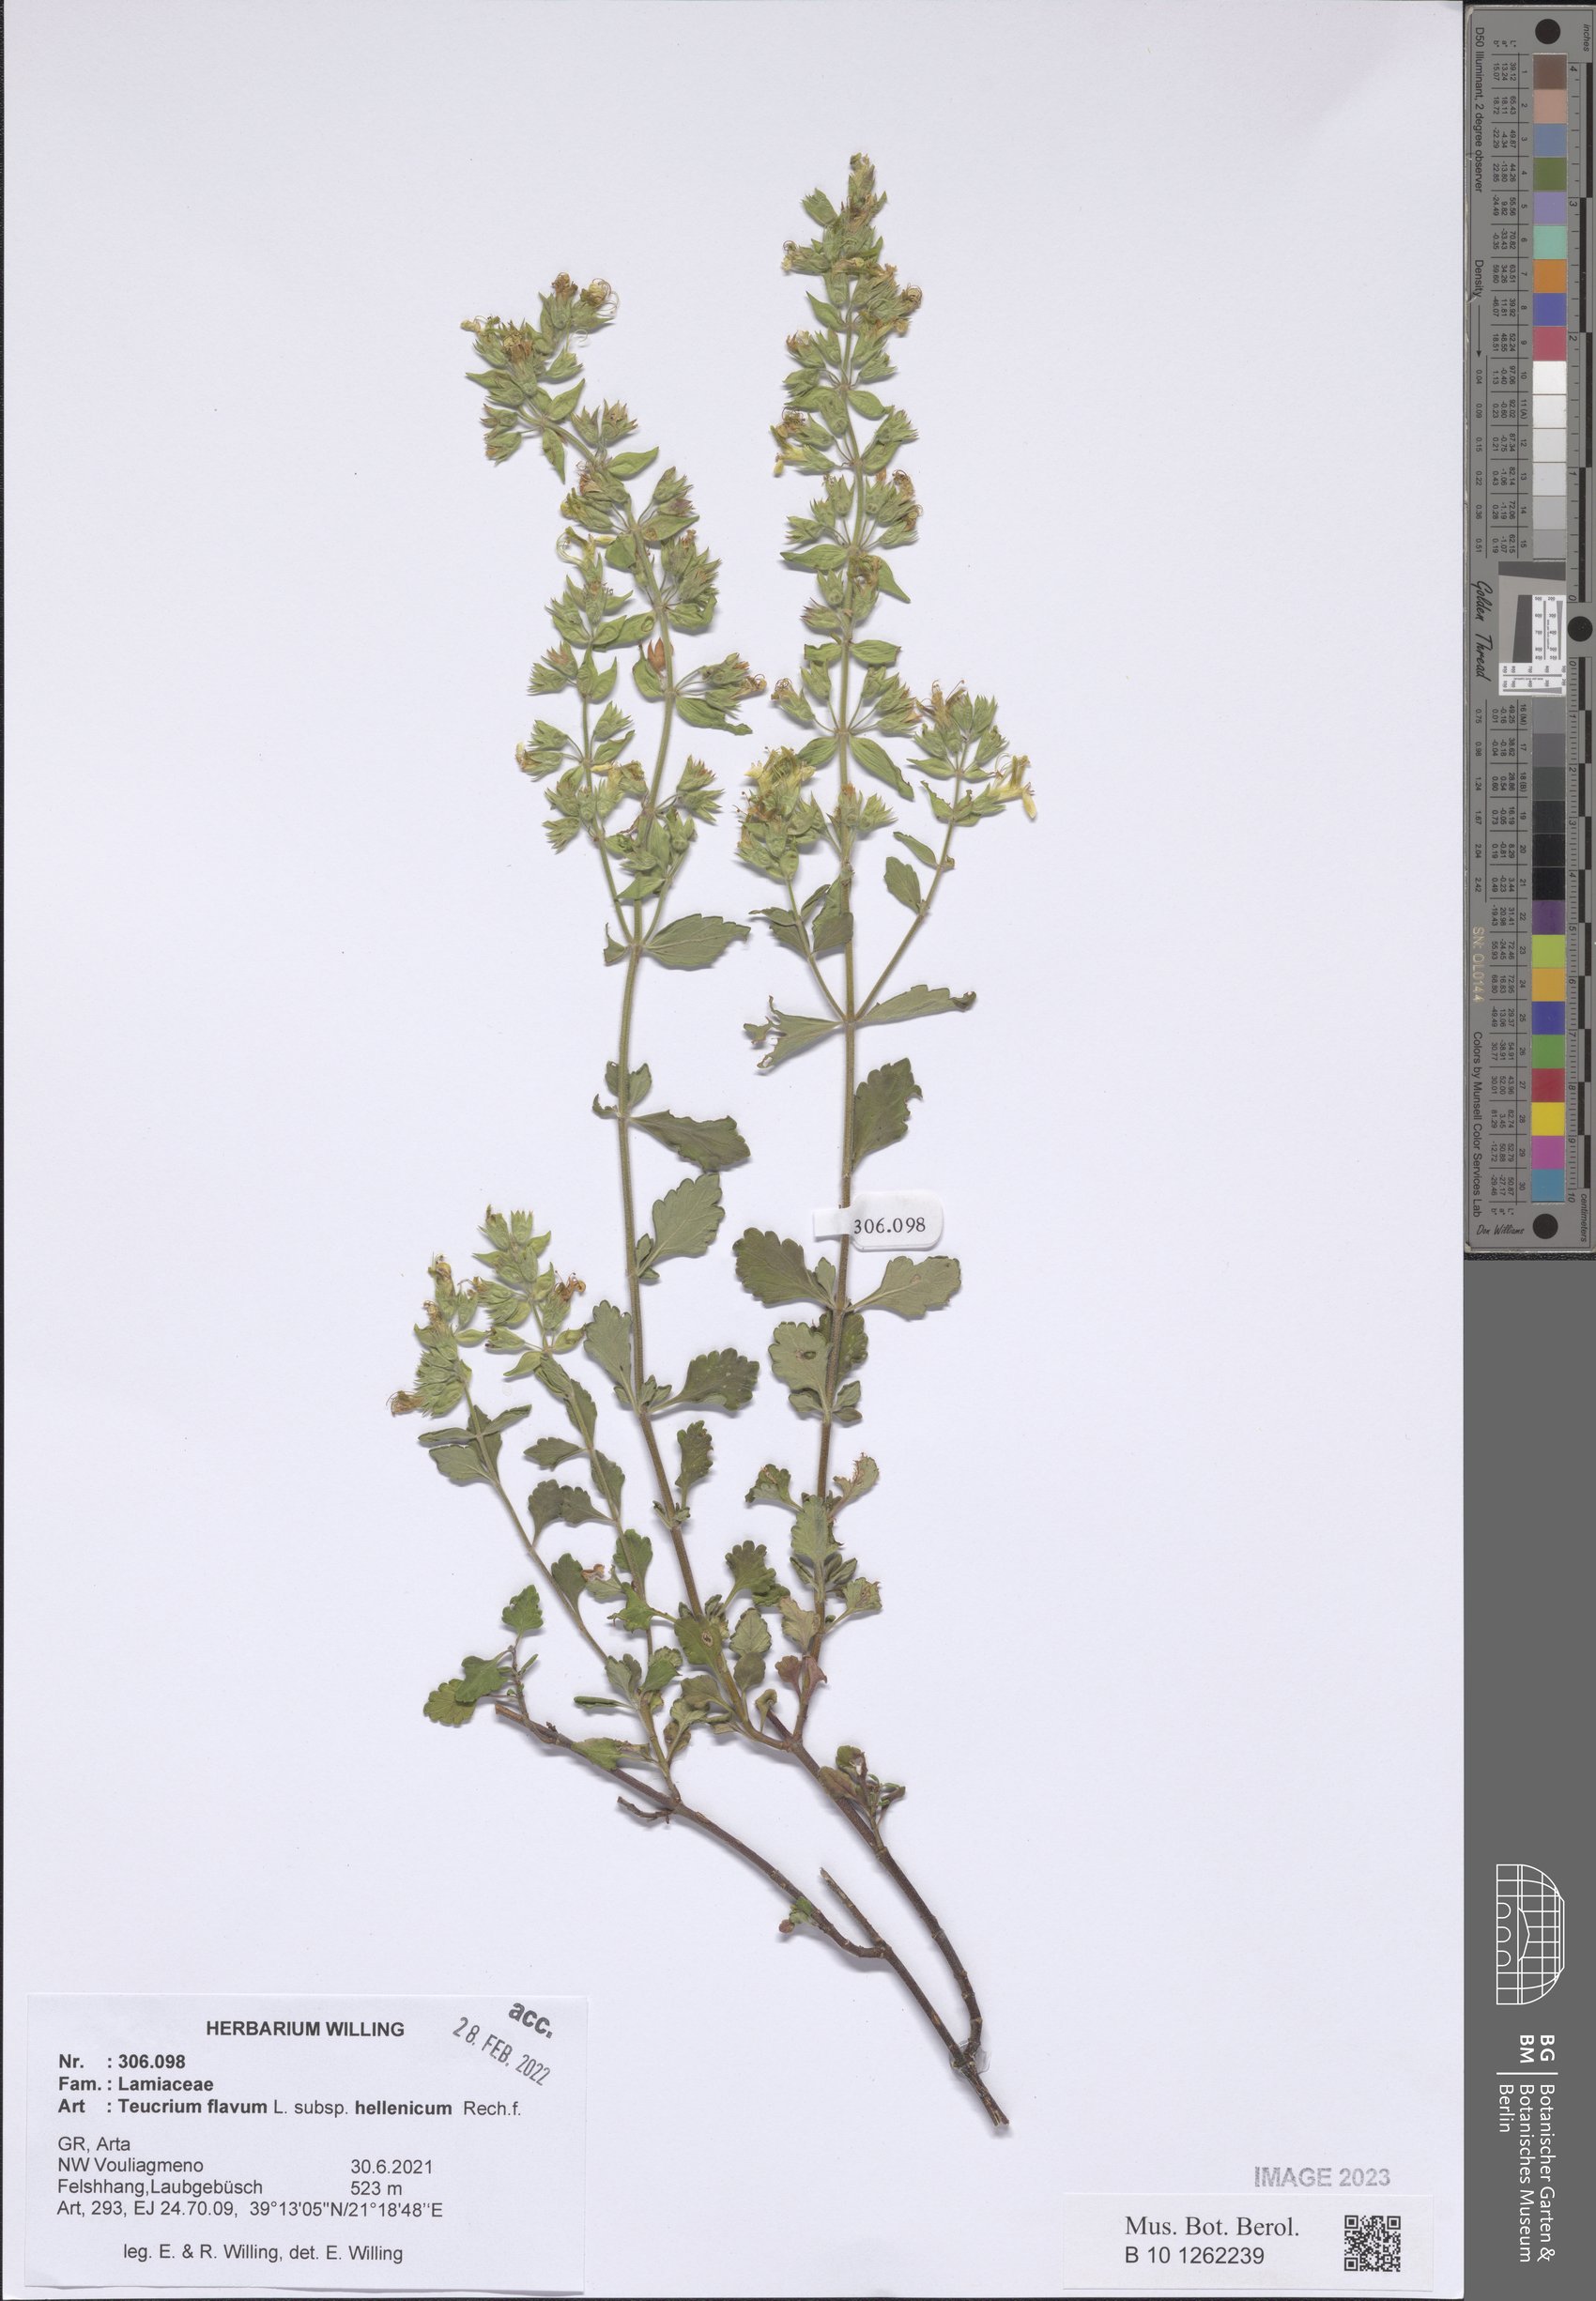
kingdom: Plantae
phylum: Tracheophyta
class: Magnoliopsida
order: Lamiales
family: Lamiaceae
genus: Teucrium
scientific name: Teucrium flavum
